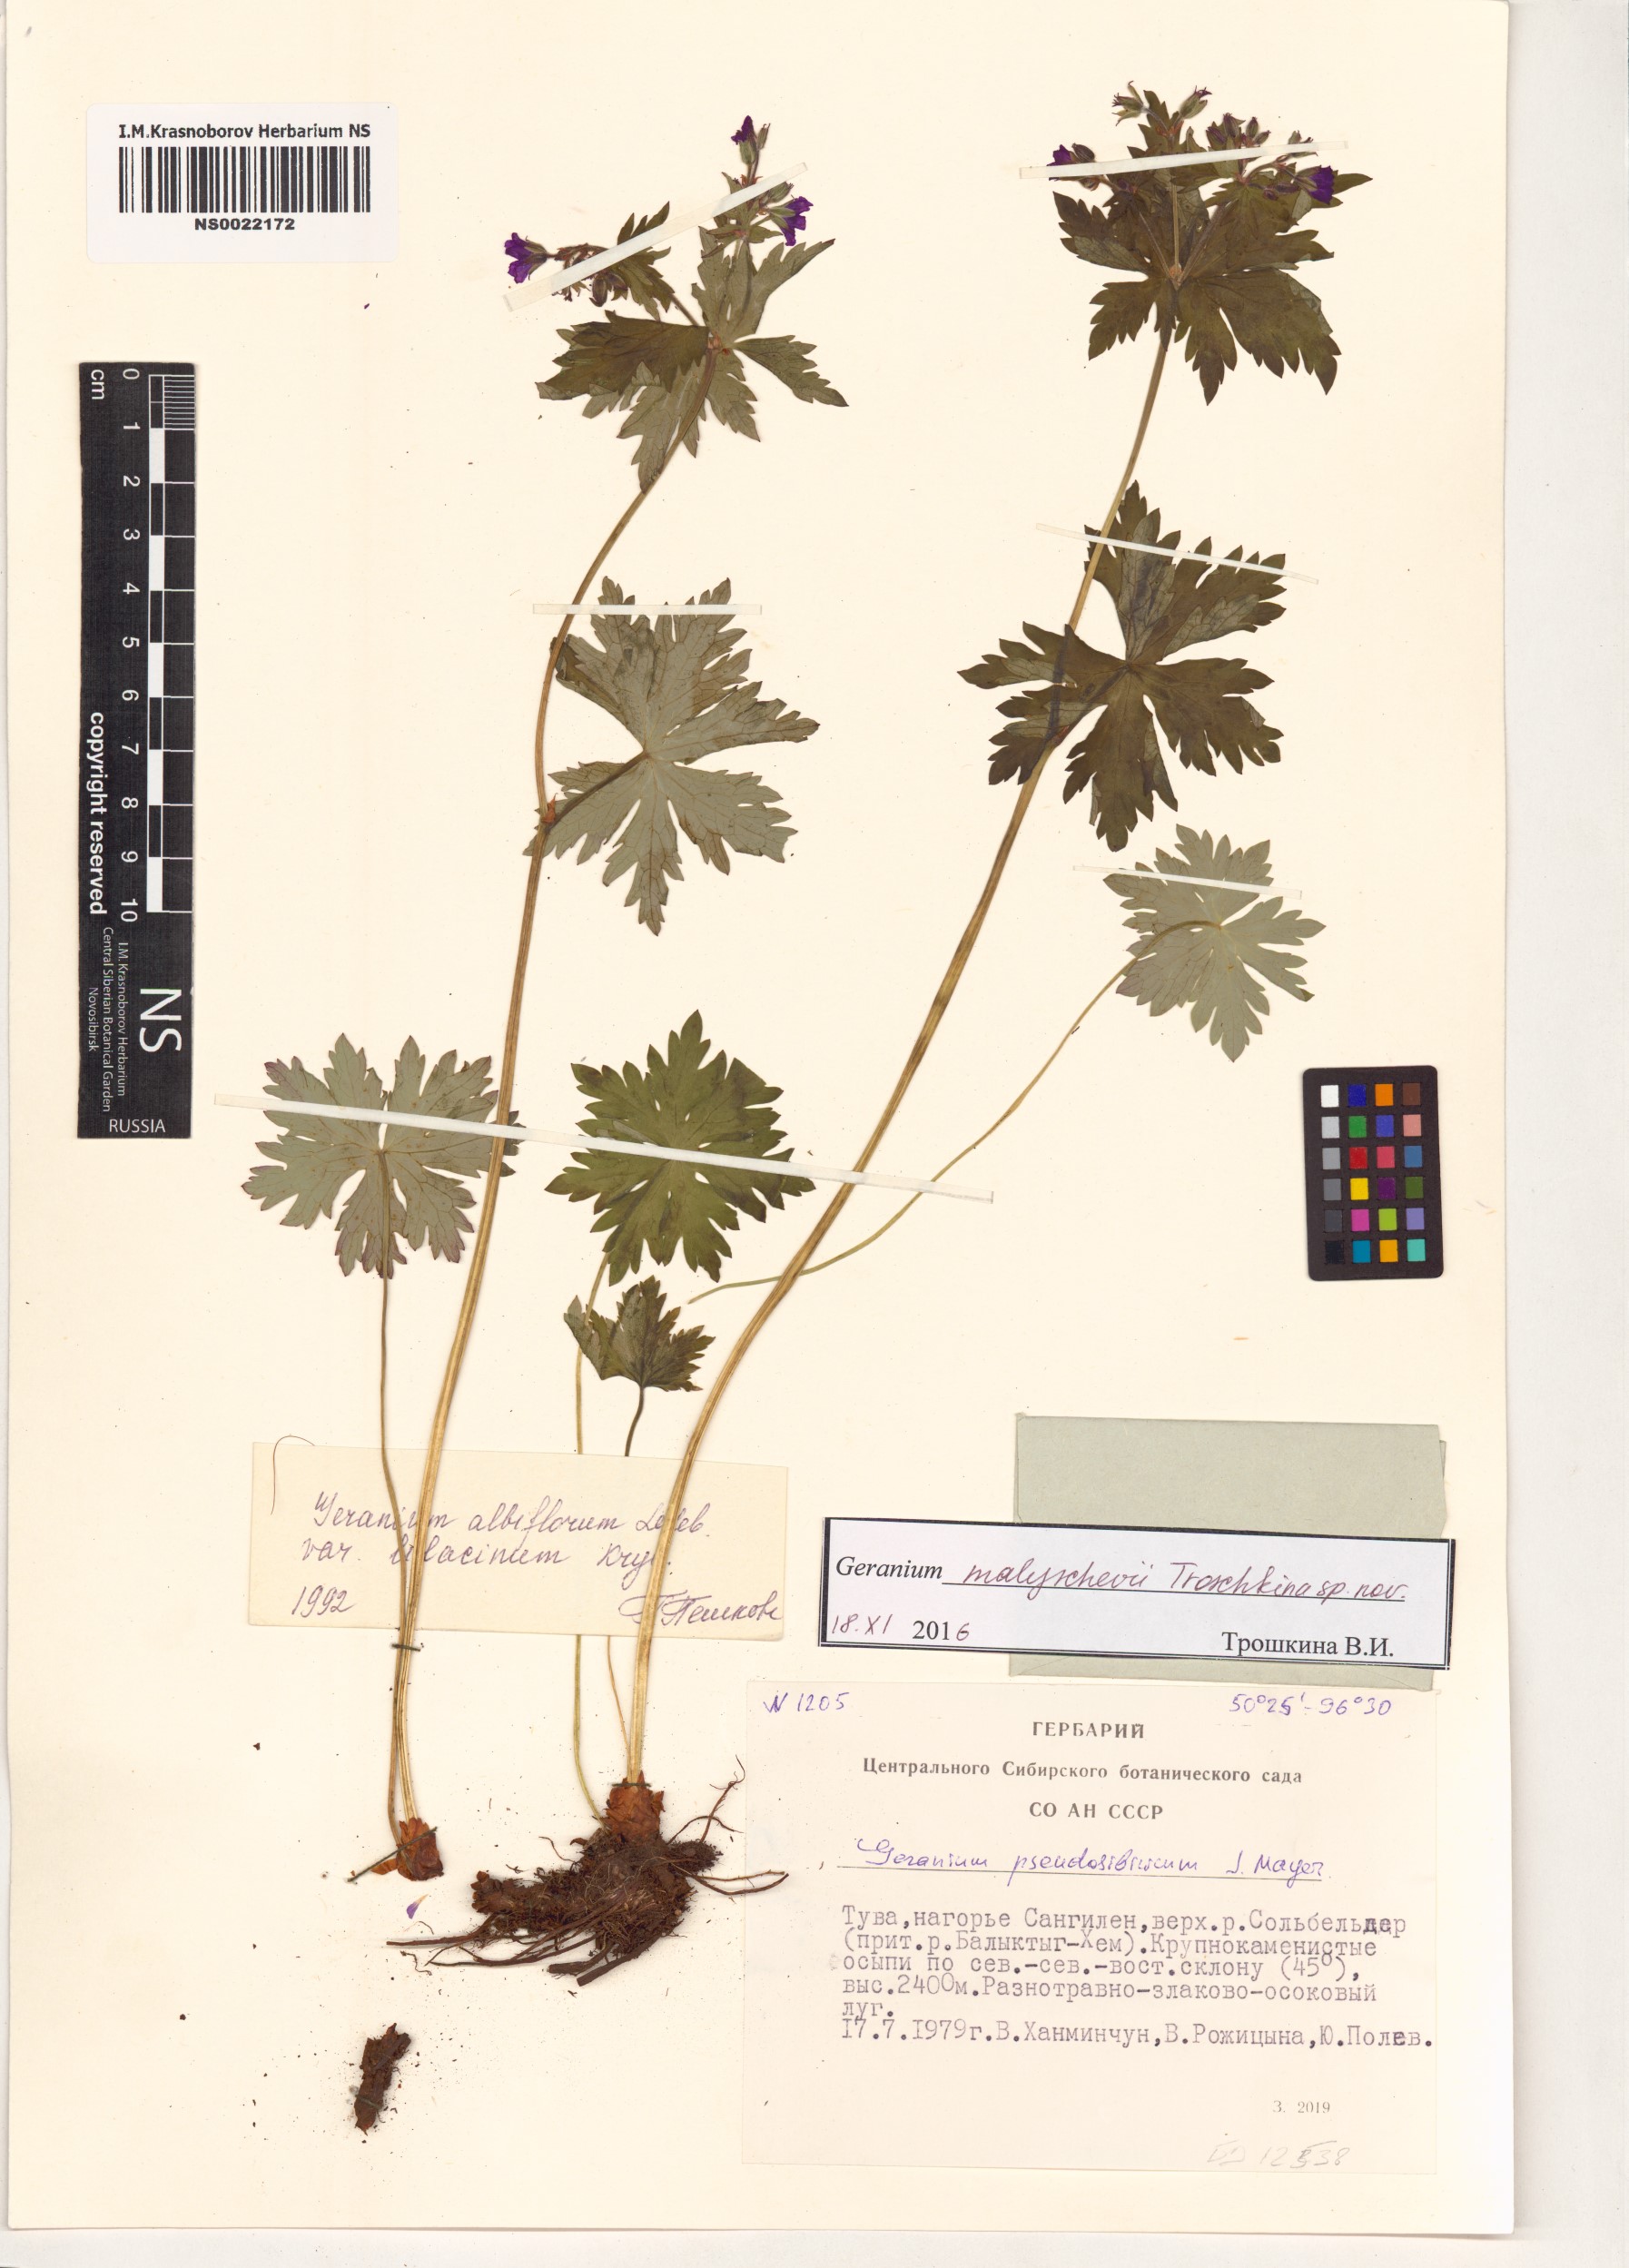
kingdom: Plantae
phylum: Tracheophyta
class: Magnoliopsida
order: Geraniales
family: Geraniaceae
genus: Geranium
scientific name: Geranium malyschevii
